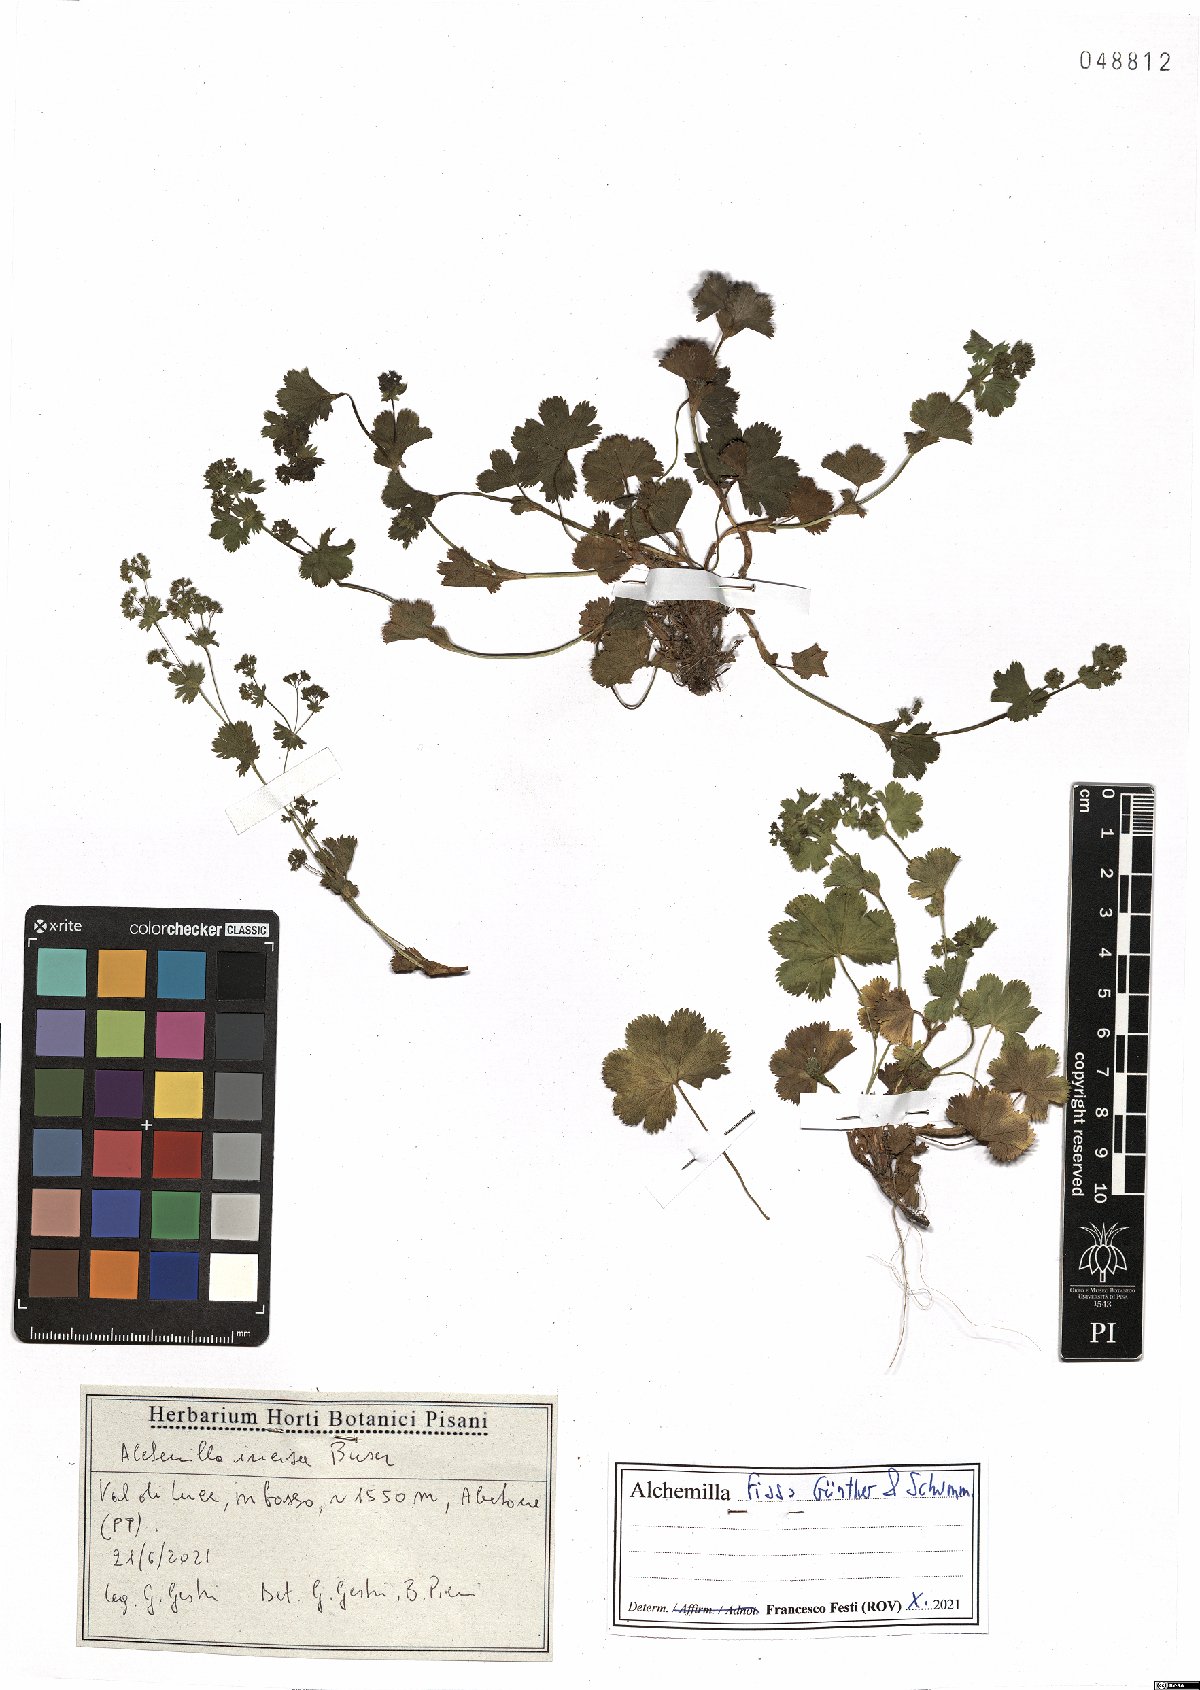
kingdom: Plantae
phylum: Tracheophyta
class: Magnoliopsida
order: Rosales
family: Rosaceae
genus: Alchemilla
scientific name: Alchemilla fissa
